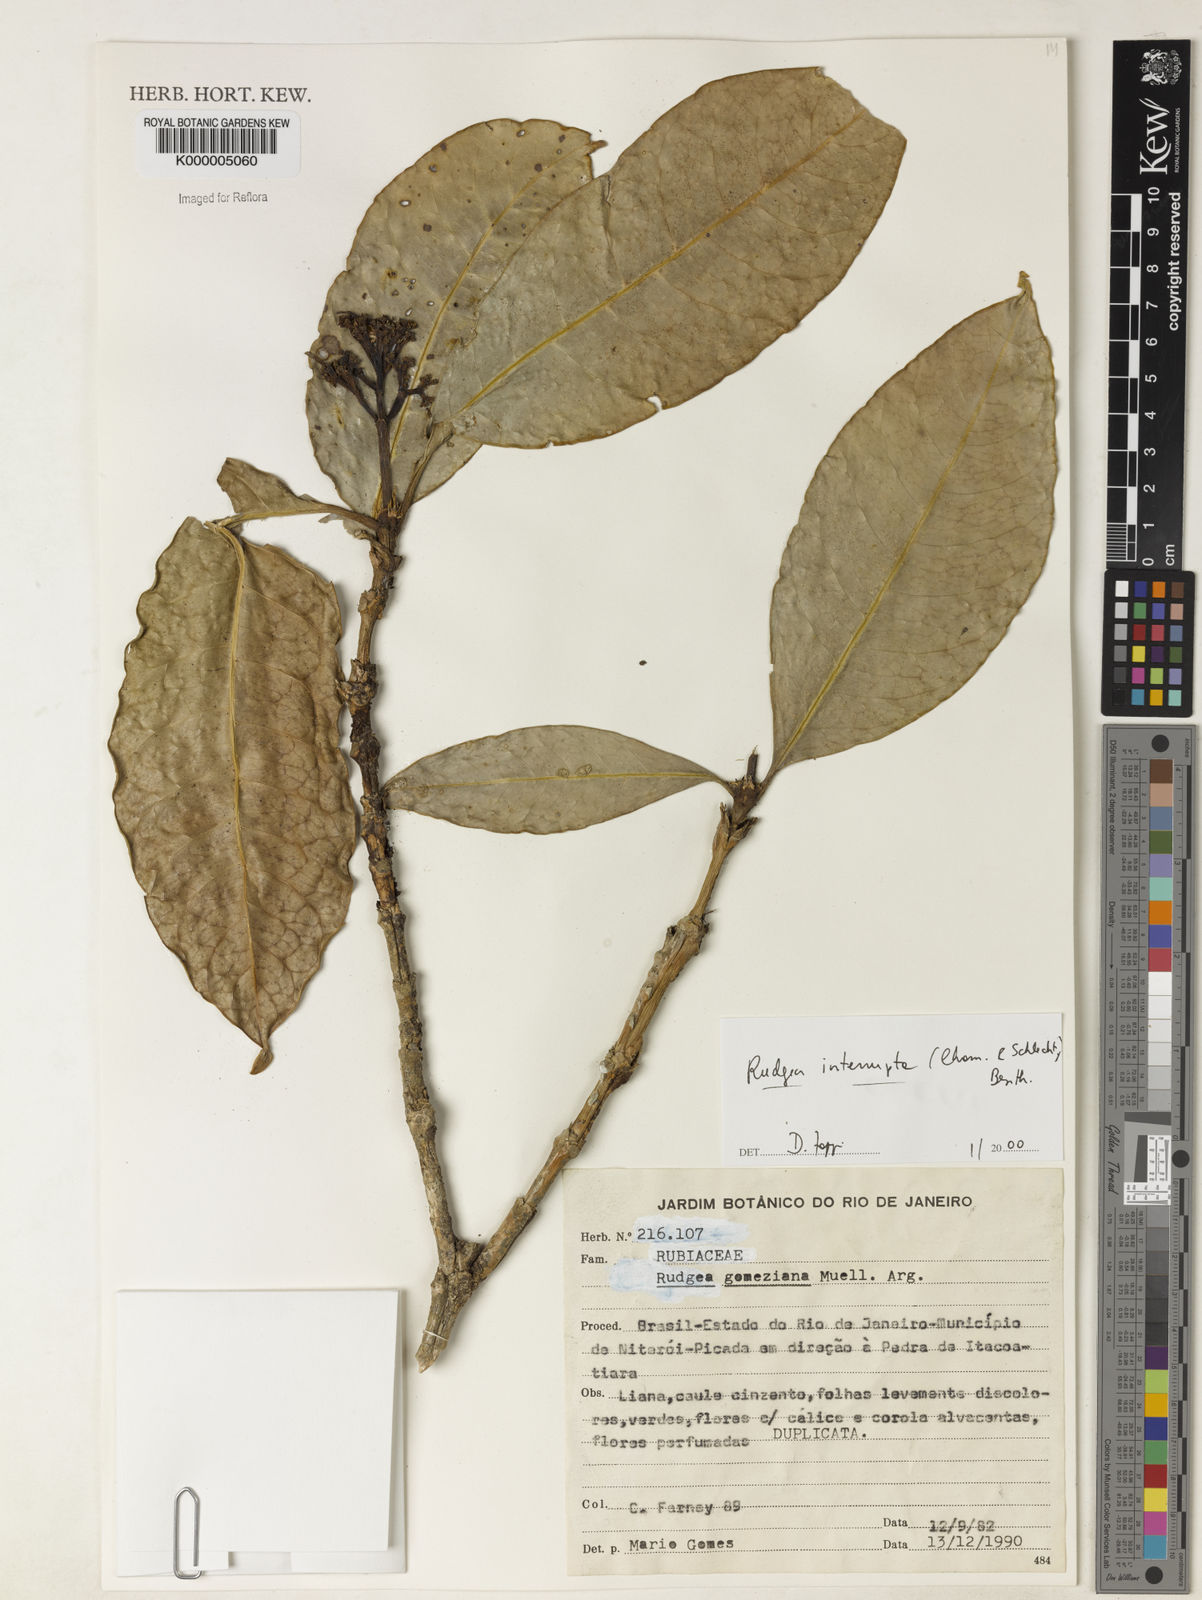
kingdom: Plantae
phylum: Tracheophyta
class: Magnoliopsida
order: Gentianales
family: Rubiaceae
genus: Rudgea
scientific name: Rudgea interrupta
